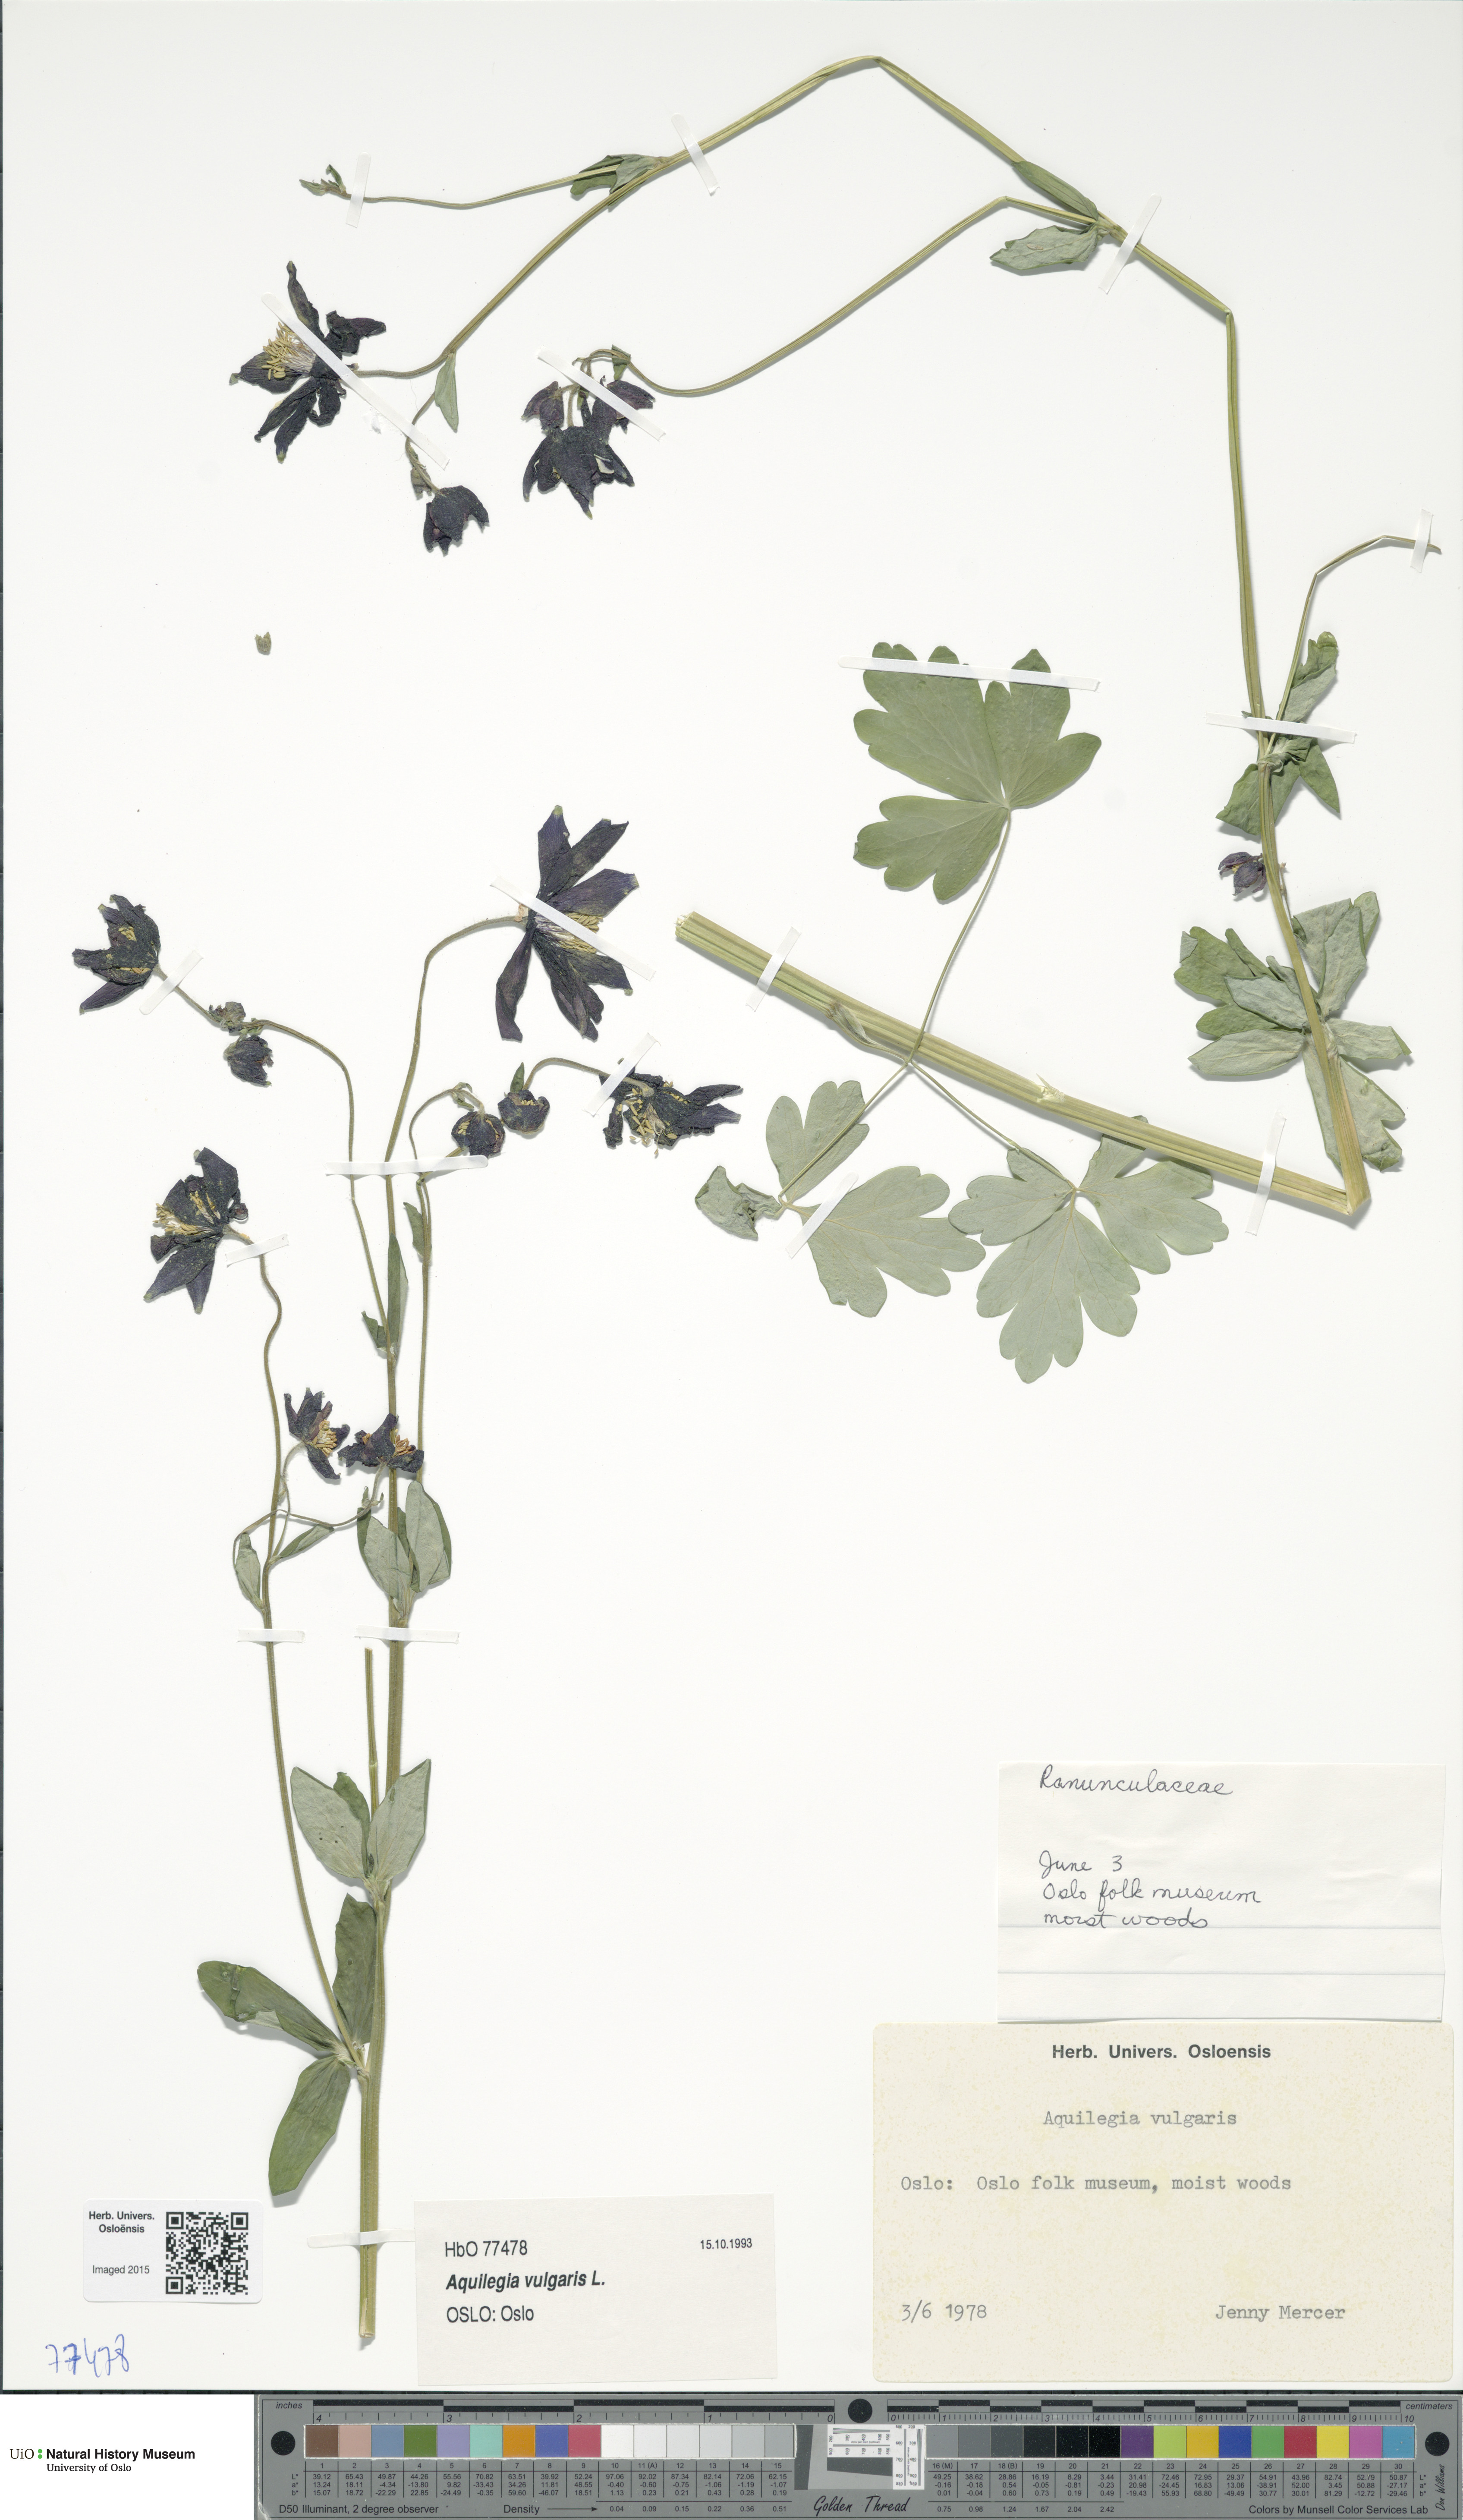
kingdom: Plantae
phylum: Tracheophyta
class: Magnoliopsida
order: Ranunculales
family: Ranunculaceae
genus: Aquilegia
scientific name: Aquilegia vulgaris
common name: Columbine
